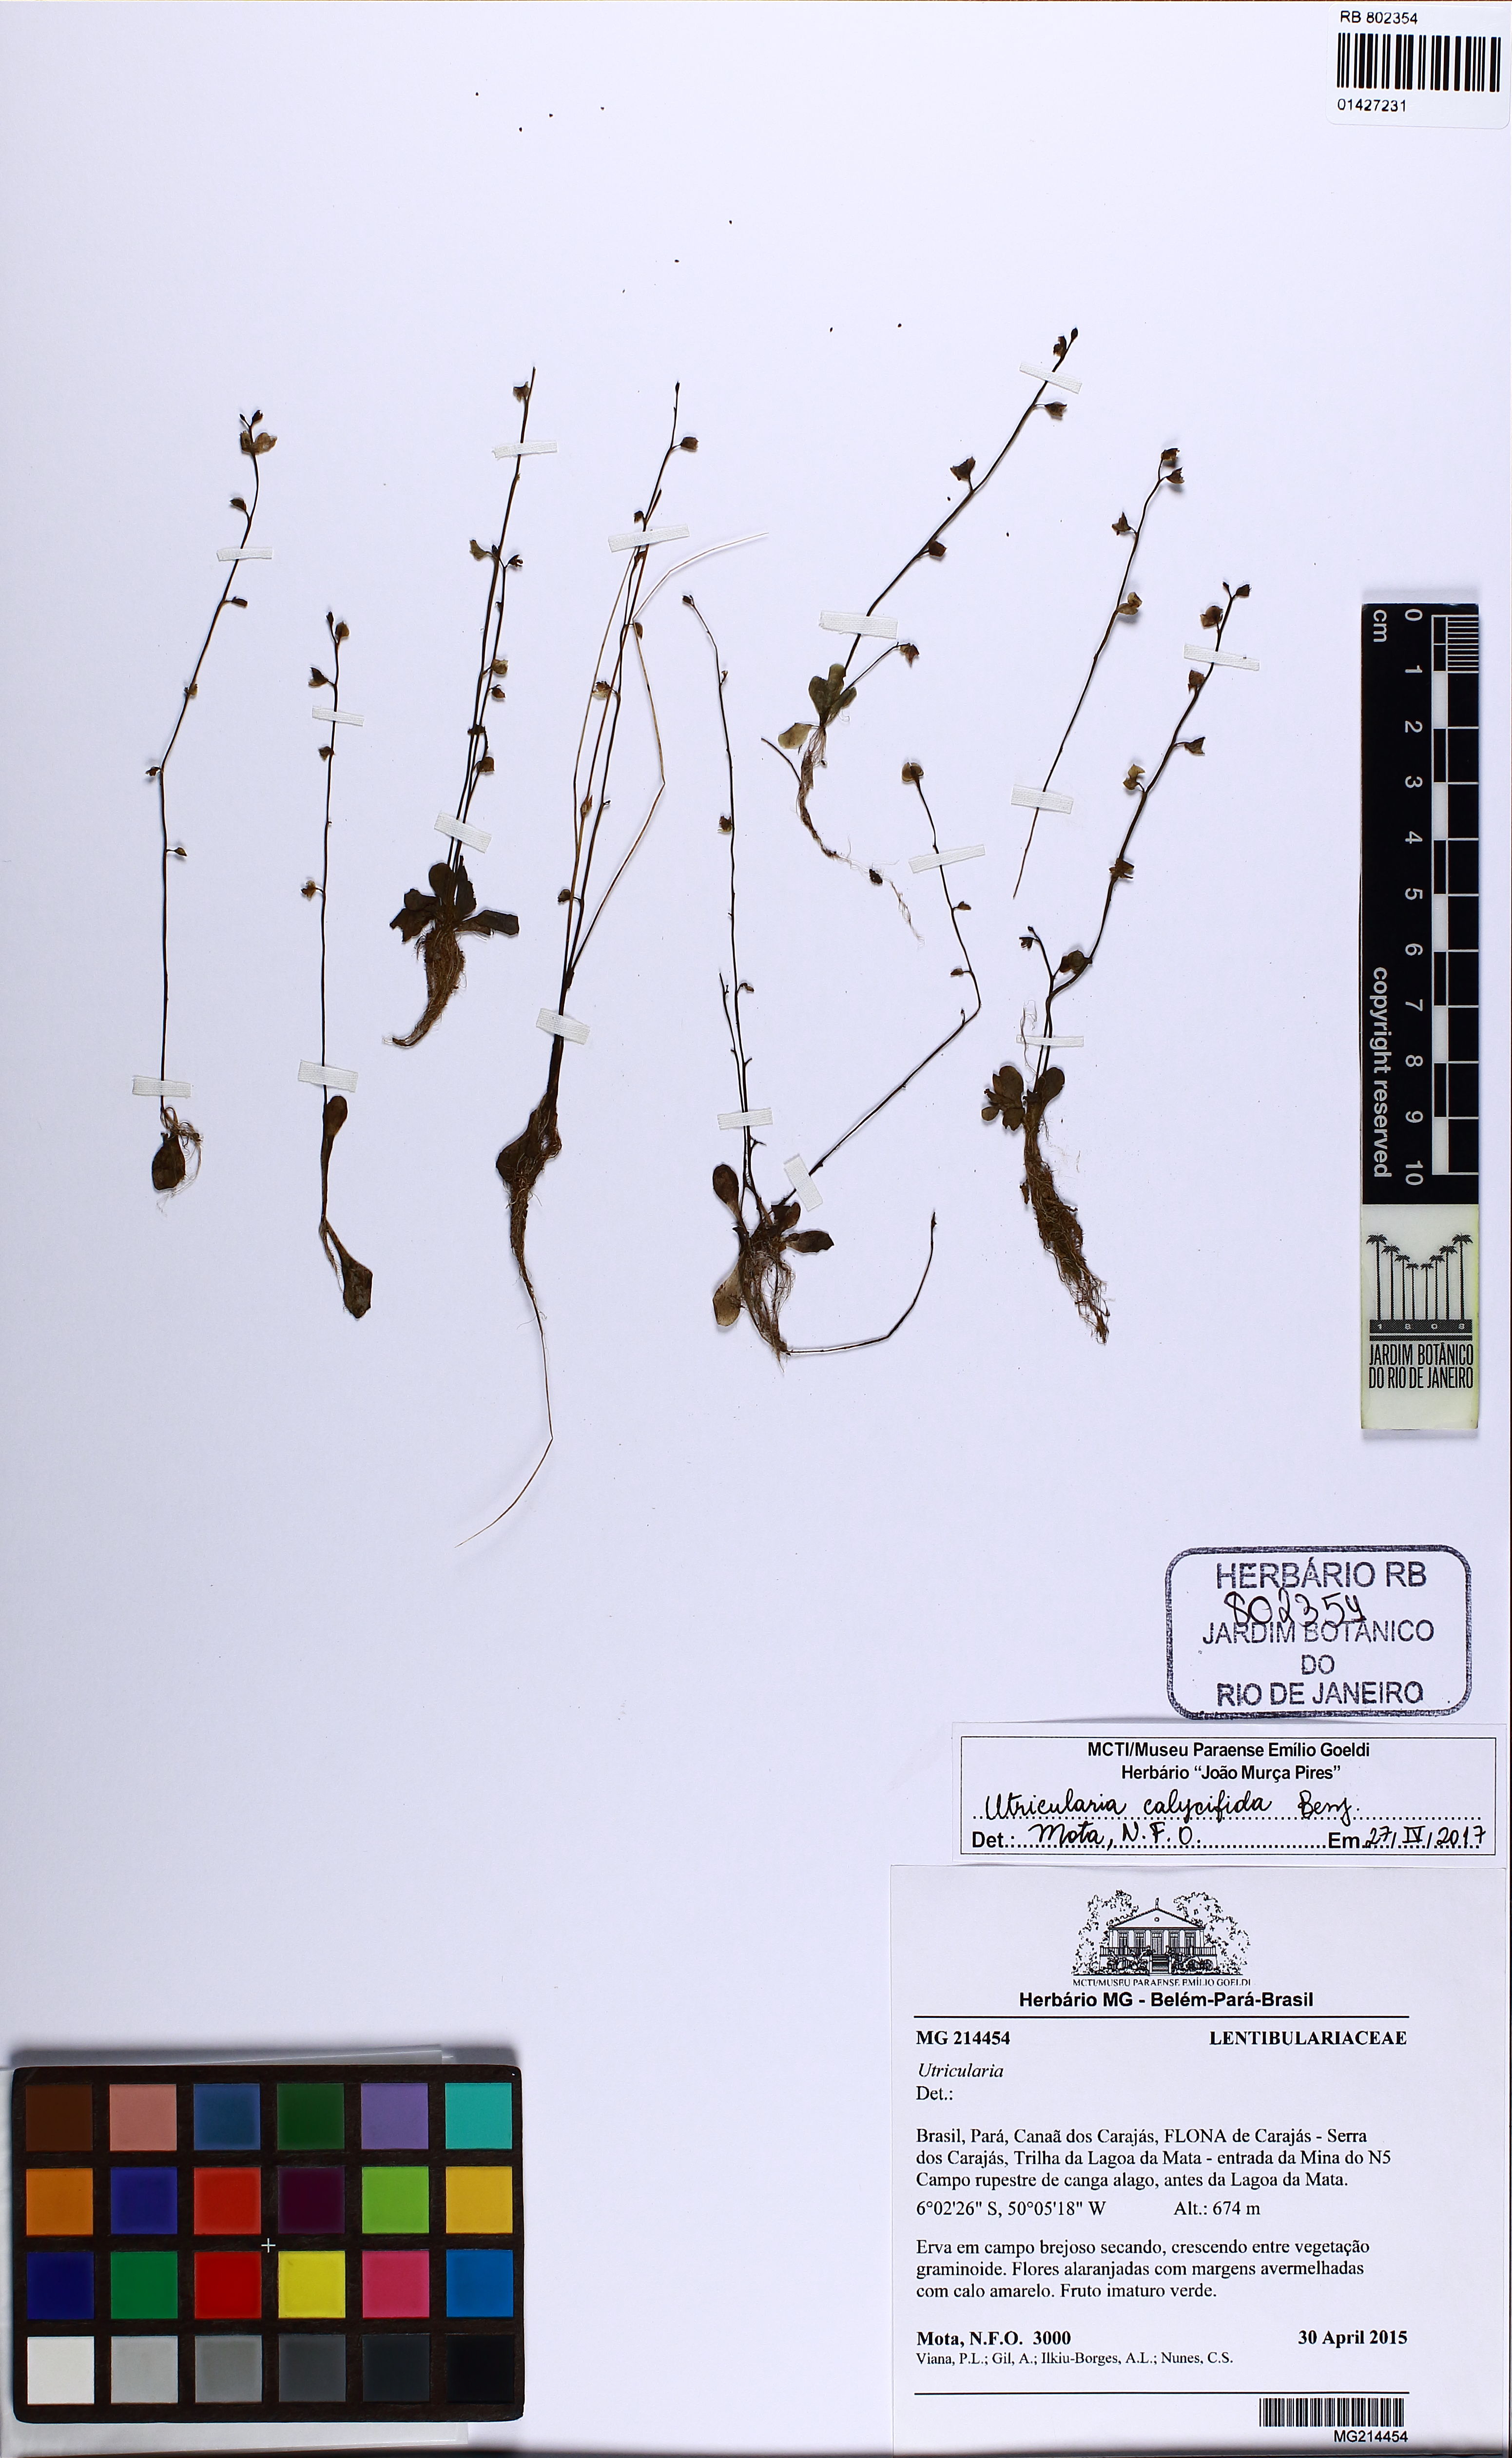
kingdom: Plantae
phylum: Tracheophyta
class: Magnoliopsida
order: Lamiales
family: Lentibulariaceae
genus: Utricularia
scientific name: Utricularia calycifida
